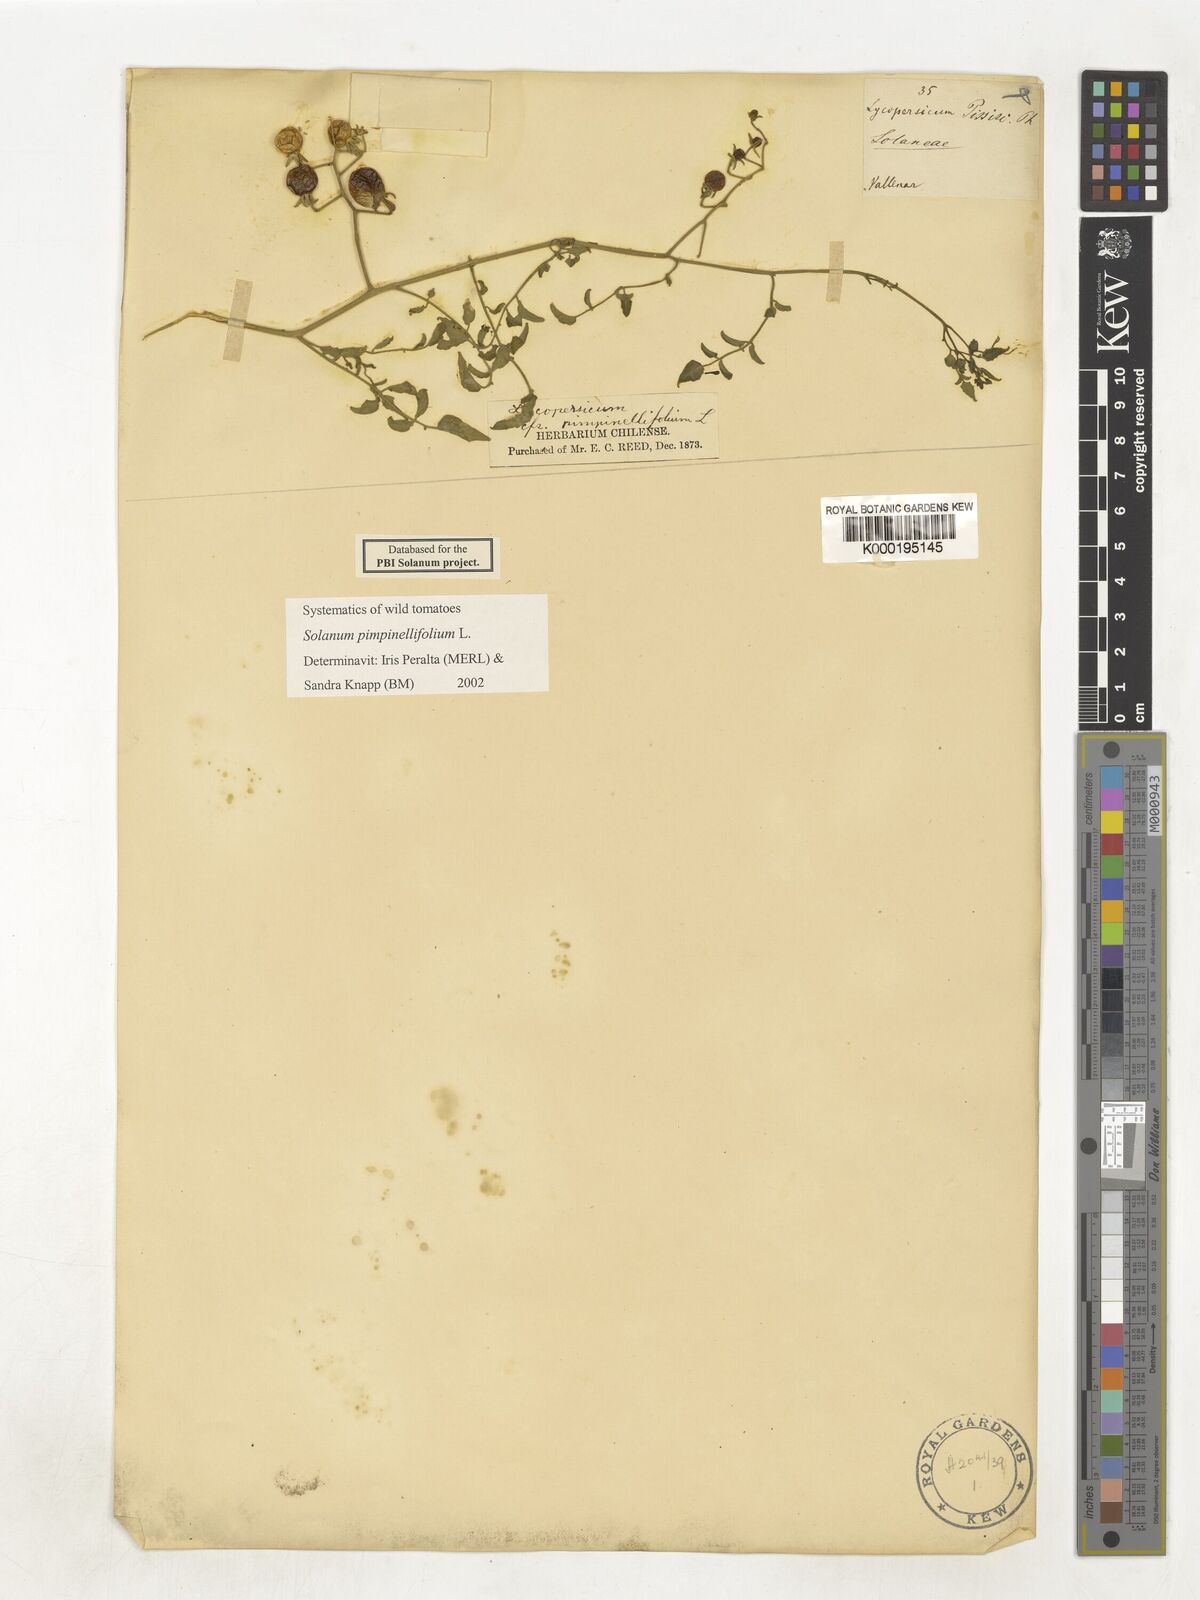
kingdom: Plantae
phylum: Tracheophyta
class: Magnoliopsida
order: Solanales
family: Solanaceae
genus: Solanum
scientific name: Solanum pimpinellifolium
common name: Currant-tomato
